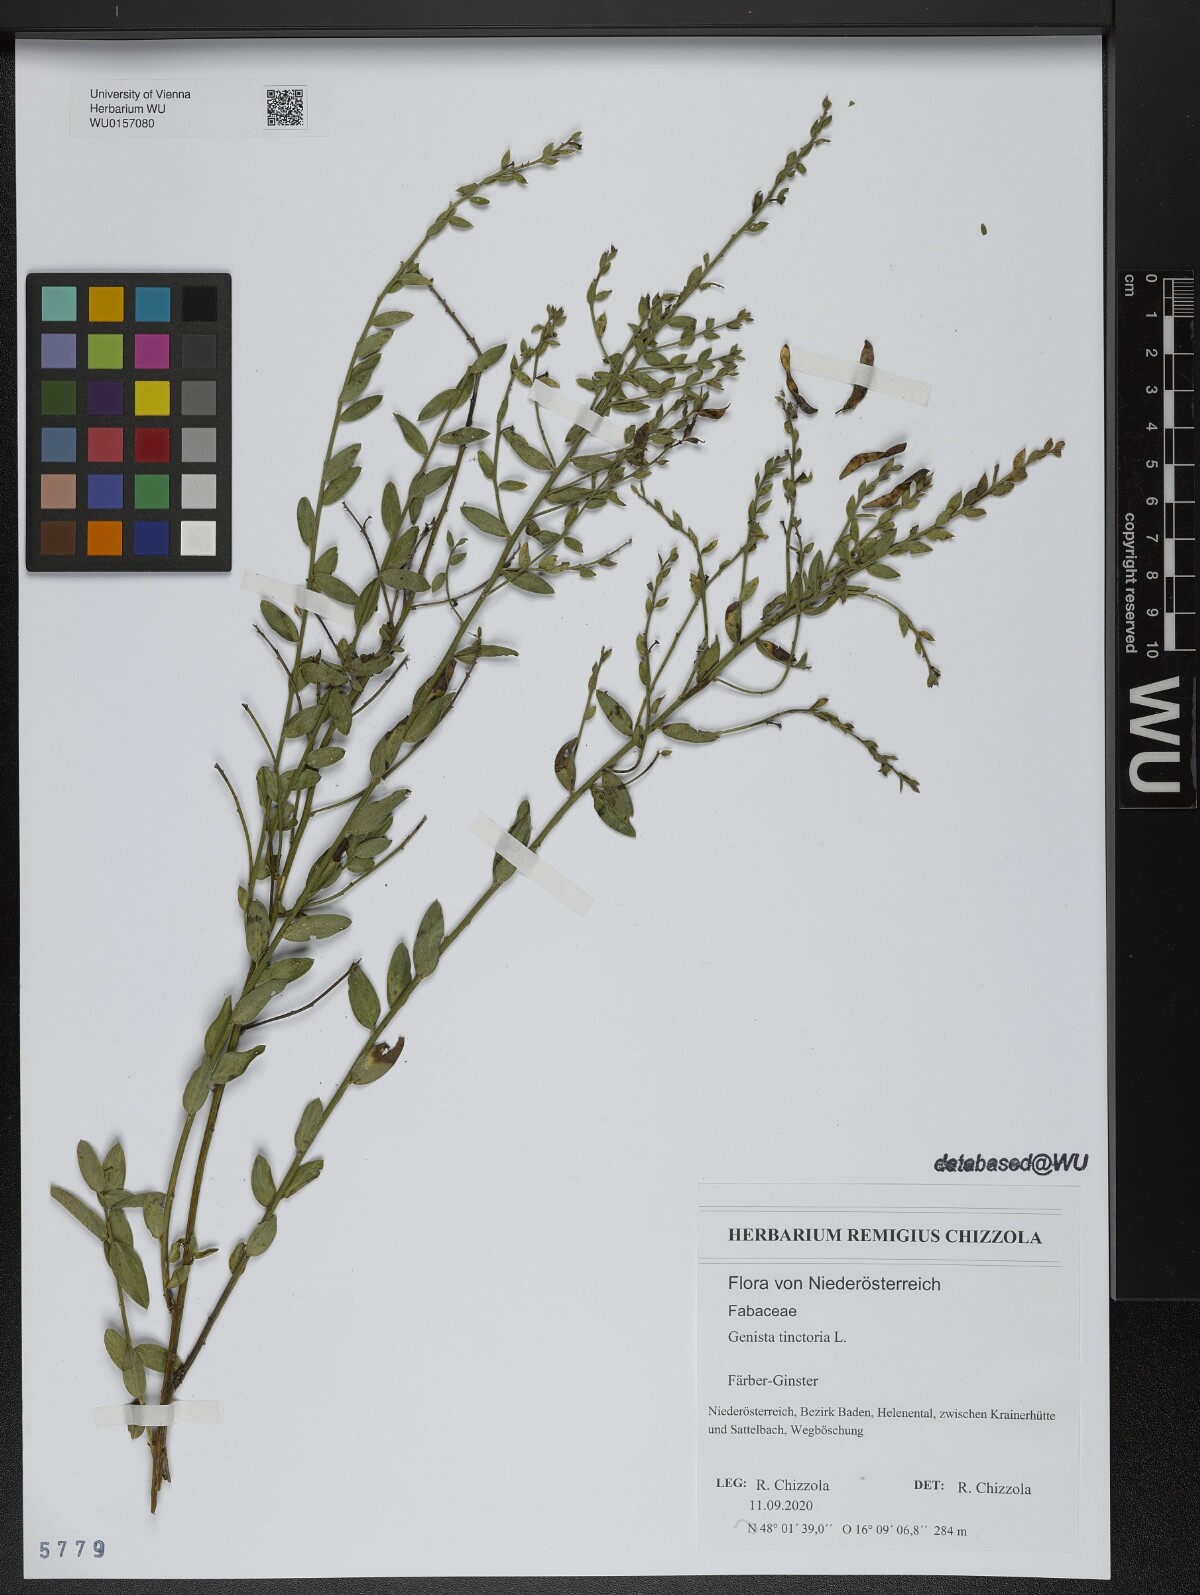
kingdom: Plantae
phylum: Tracheophyta
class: Magnoliopsida
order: Fabales
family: Fabaceae
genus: Genista
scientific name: Genista tinctoria
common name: Dyer's greenweed
